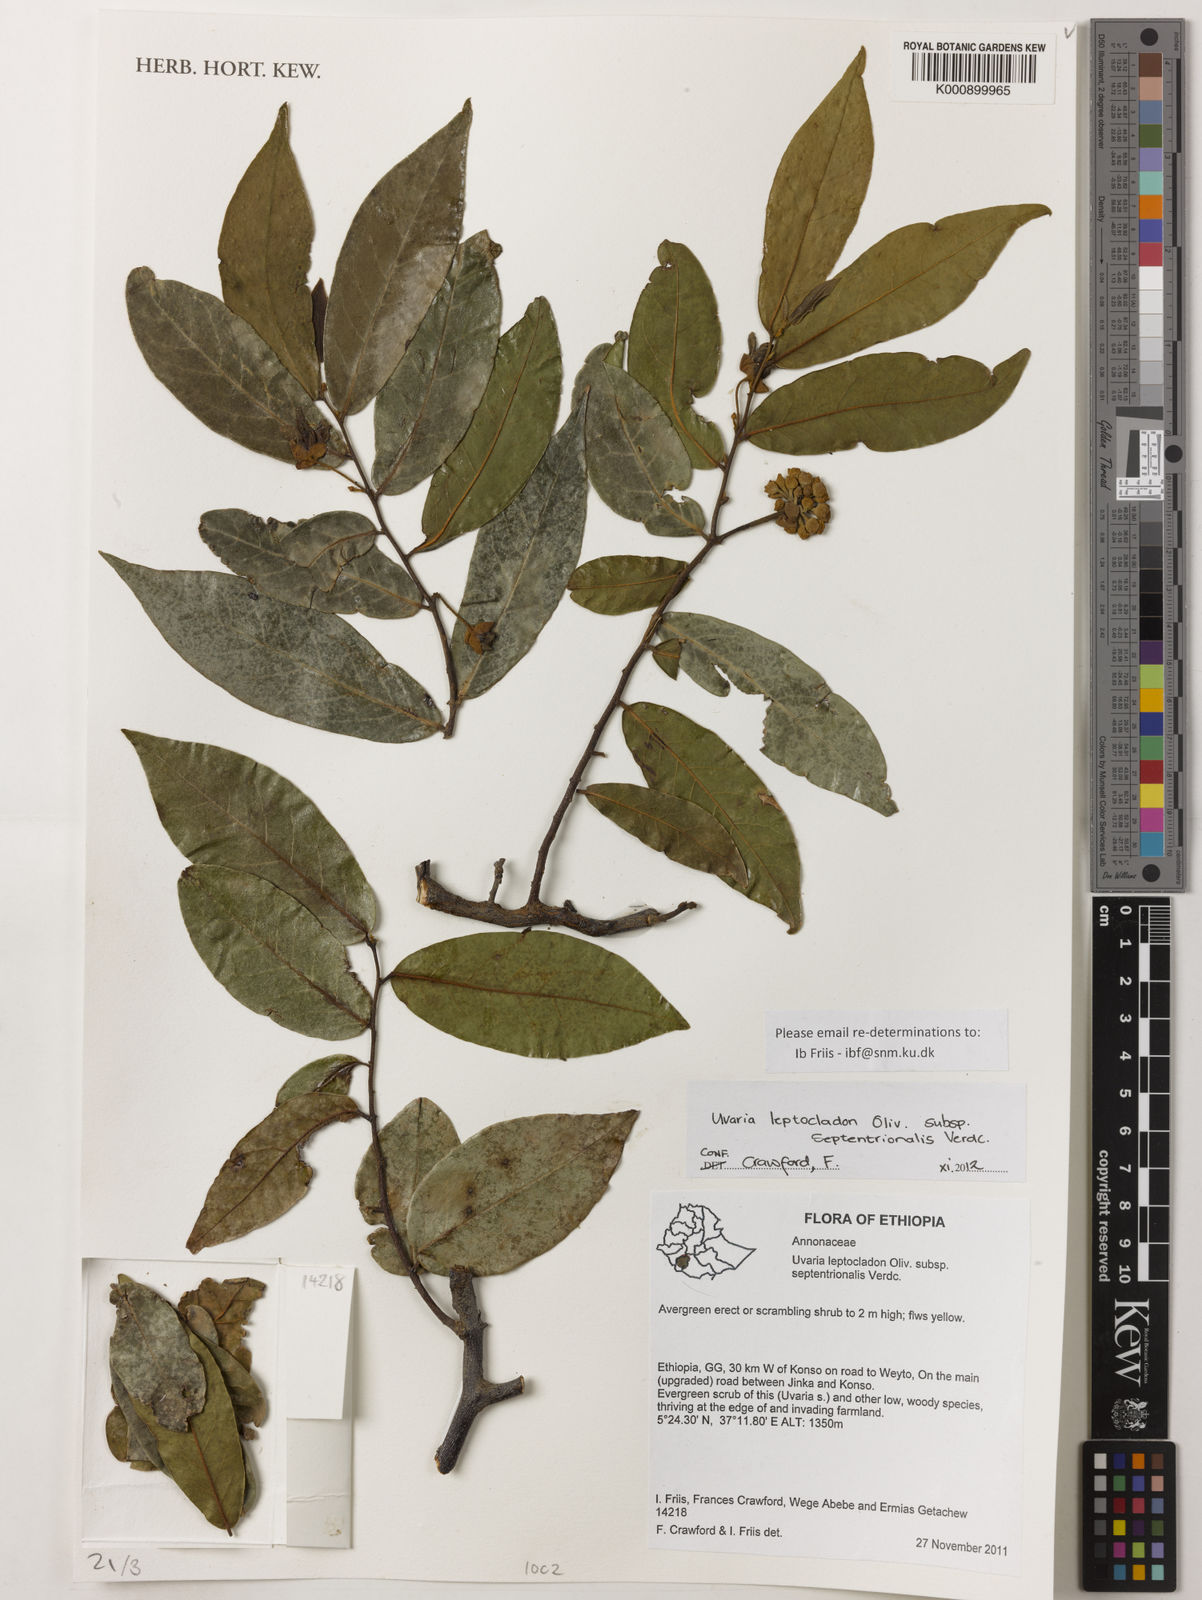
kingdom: Plantae
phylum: Tracheophyta
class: Magnoliopsida
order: Magnoliales
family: Annonaceae
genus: Uvaria
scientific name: Uvaria leptocladon
